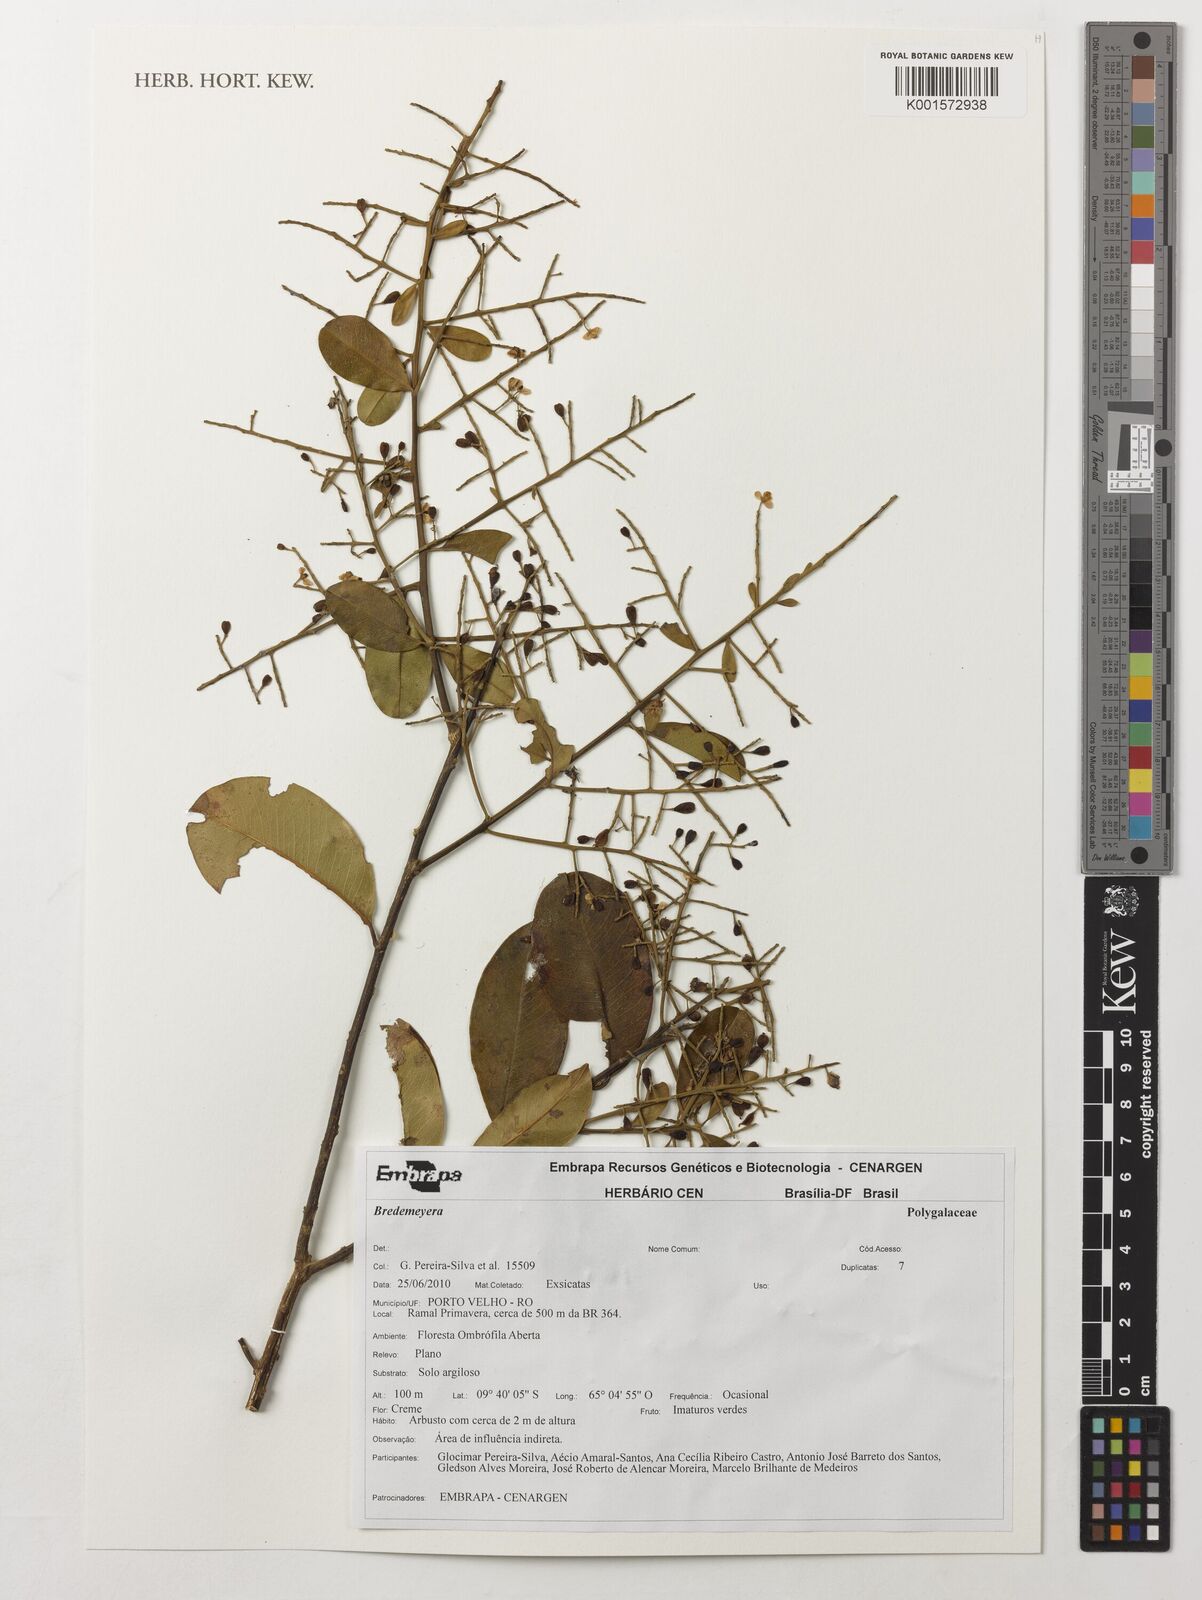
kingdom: Plantae
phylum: Tracheophyta
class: Magnoliopsida
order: Fabales
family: Polygalaceae
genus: Bredemeyera
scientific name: Bredemeyera
